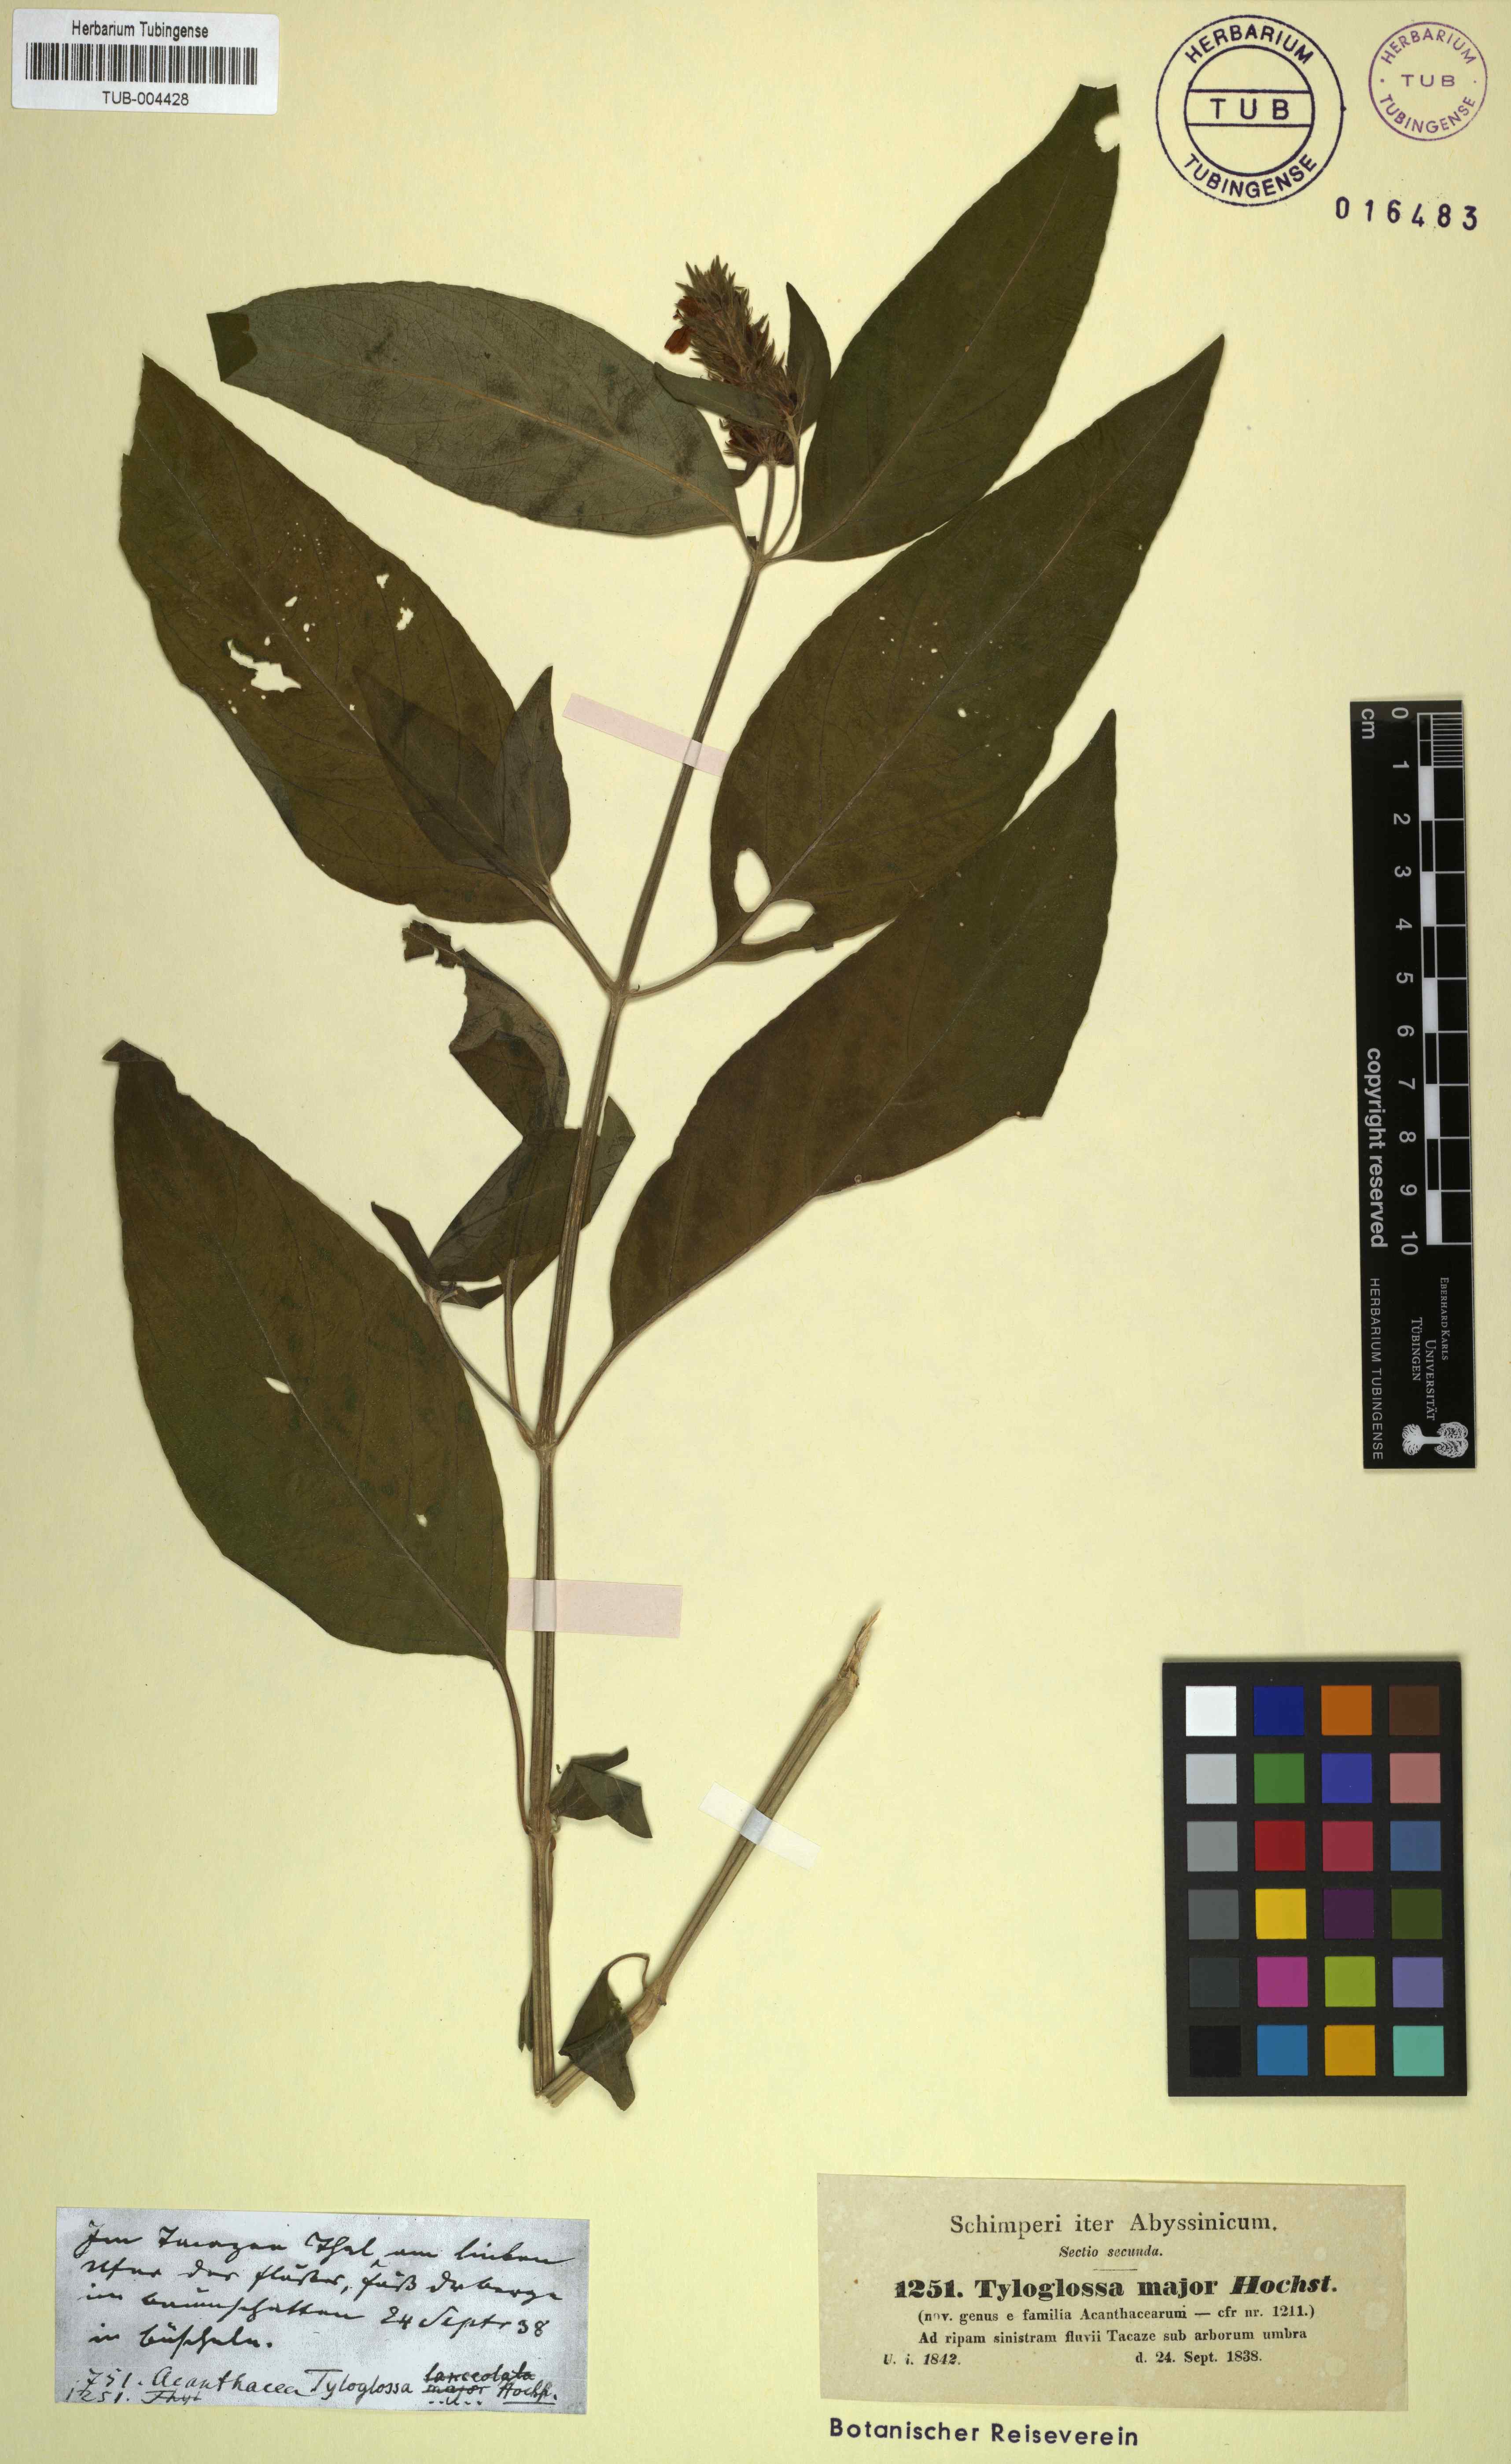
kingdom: Plantae
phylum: Tracheophyta
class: Magnoliopsida
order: Lamiales
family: Acanthaceae
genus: Justicia
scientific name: Justicia flava
